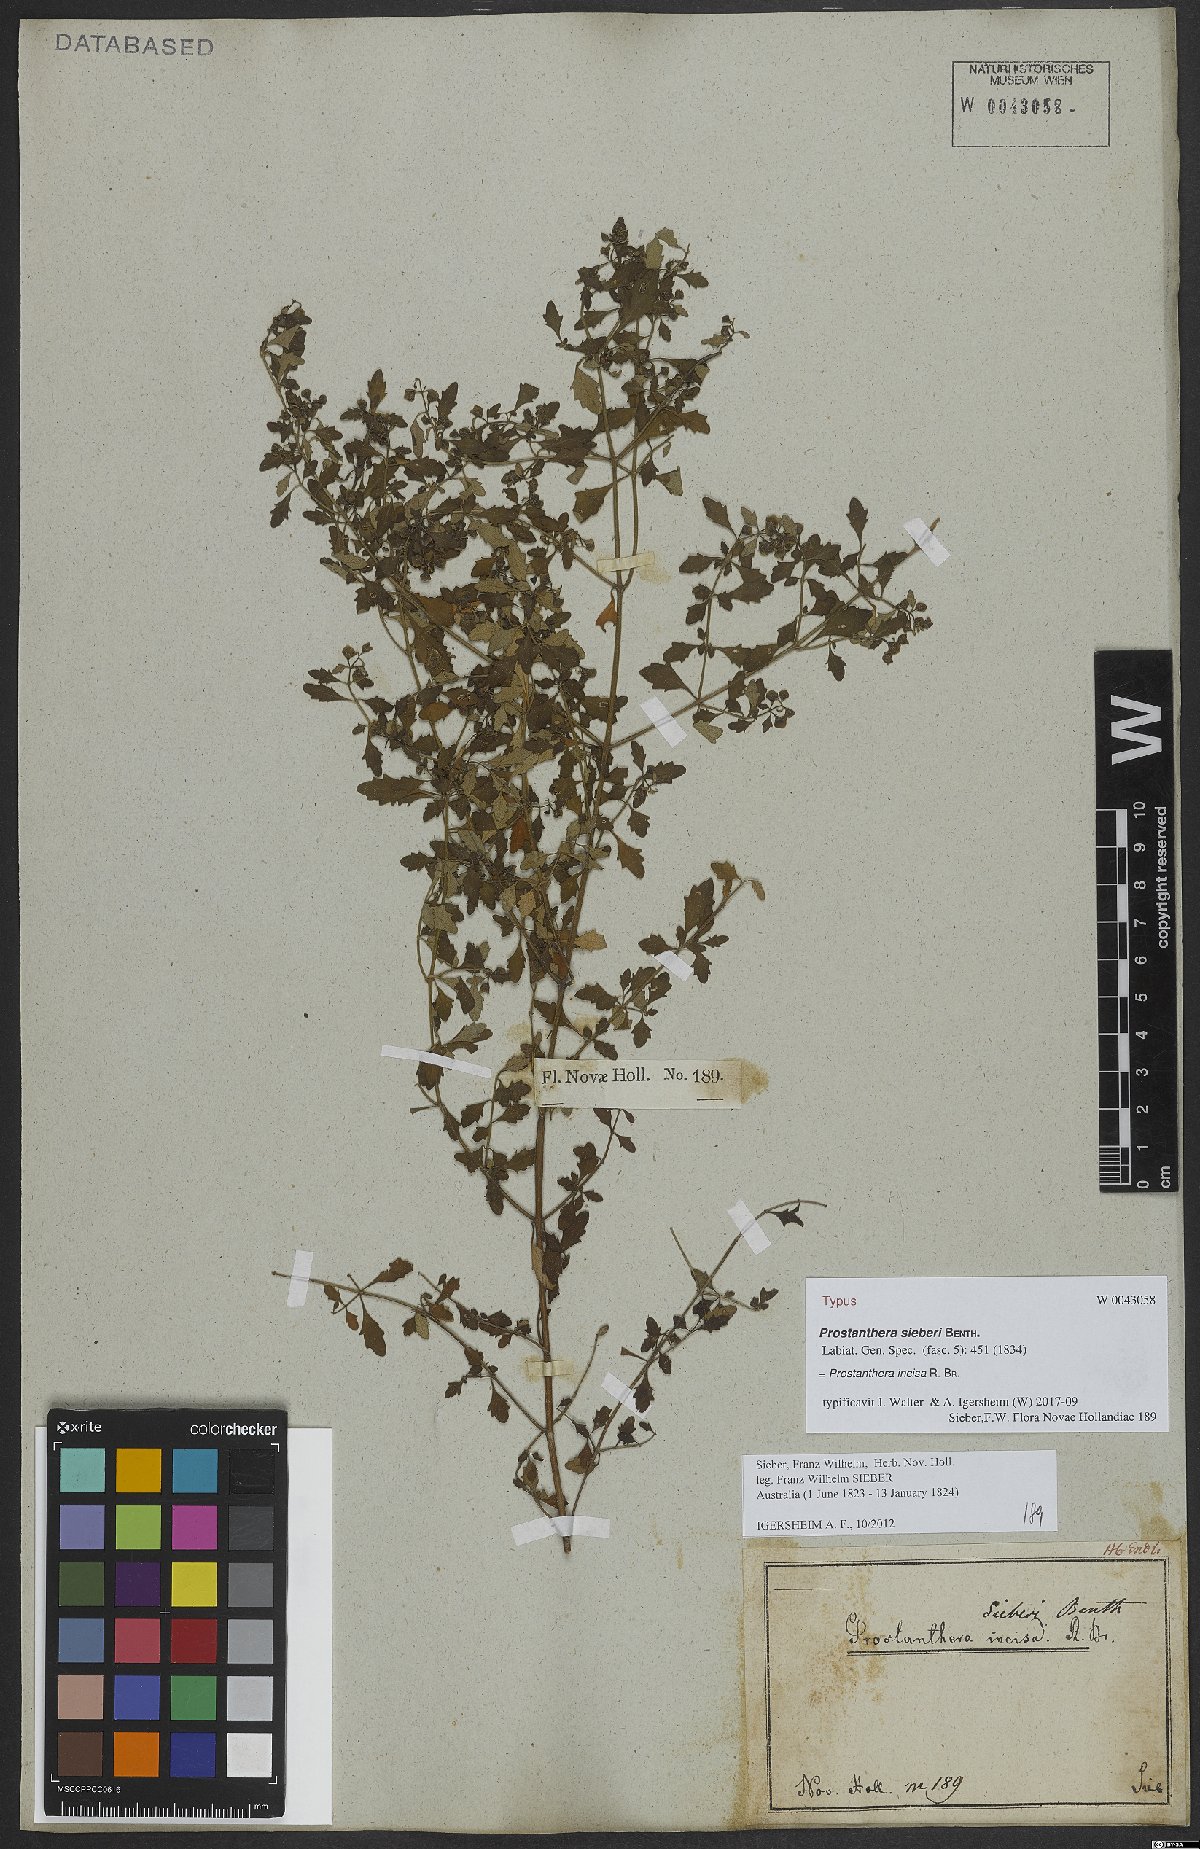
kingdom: Plantae
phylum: Tracheophyta
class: Magnoliopsida
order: Lamiales
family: Lamiaceae
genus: Prostanthera
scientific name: Prostanthera incisa
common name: Cut-leaf mintbush
